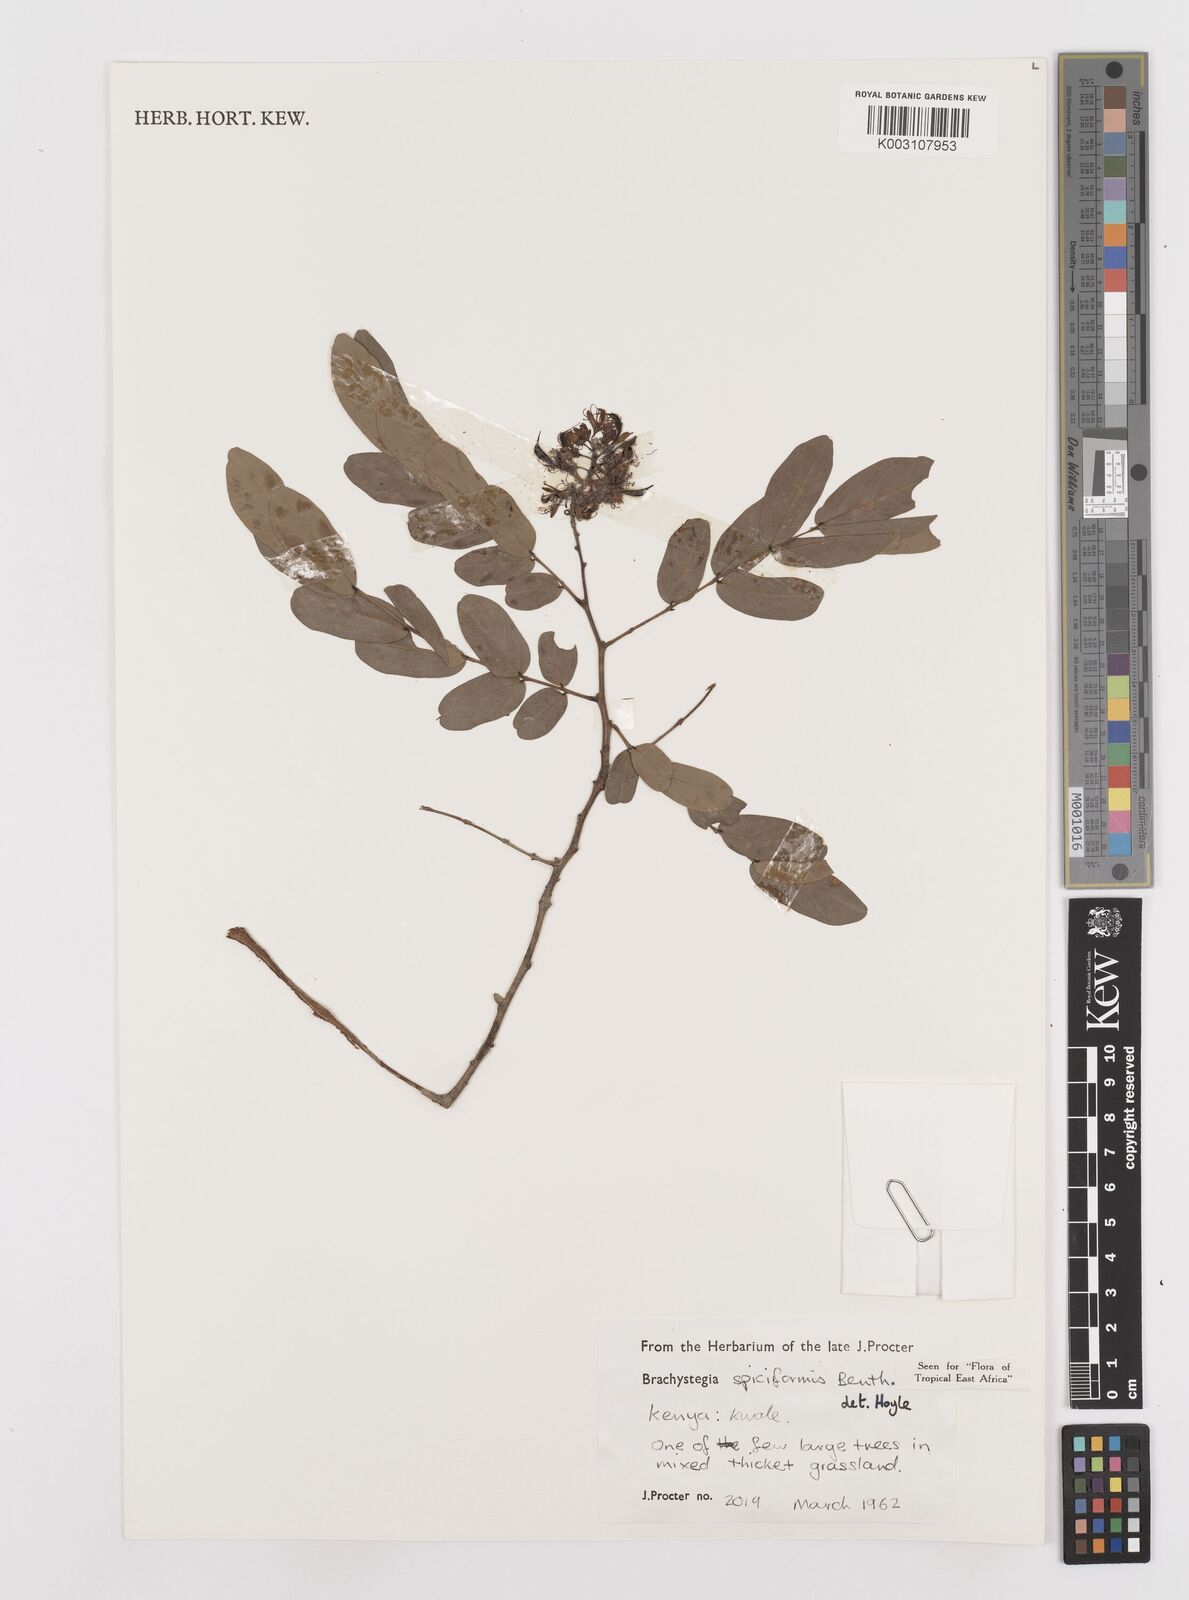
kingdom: Plantae
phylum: Tracheophyta
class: Magnoliopsida
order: Fabales
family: Fabaceae
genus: Brachystegia
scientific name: Brachystegia spiciformis
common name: Zebrawood
